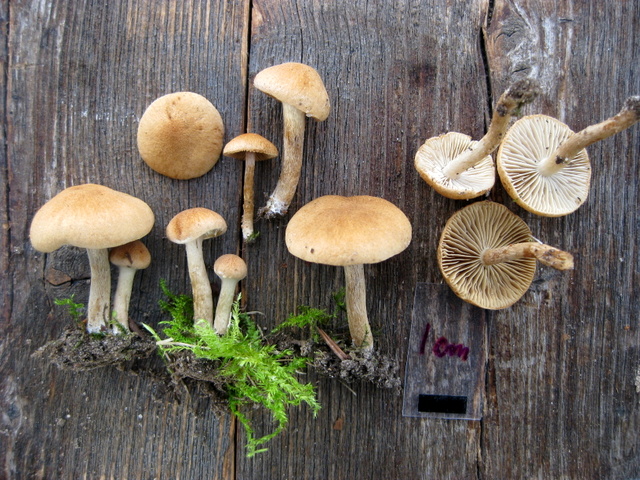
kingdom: Fungi
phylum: Basidiomycota
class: Agaricomycetes
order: Agaricales
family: Inocybaceae
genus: Inocybe
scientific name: Inocybe dulcamara
